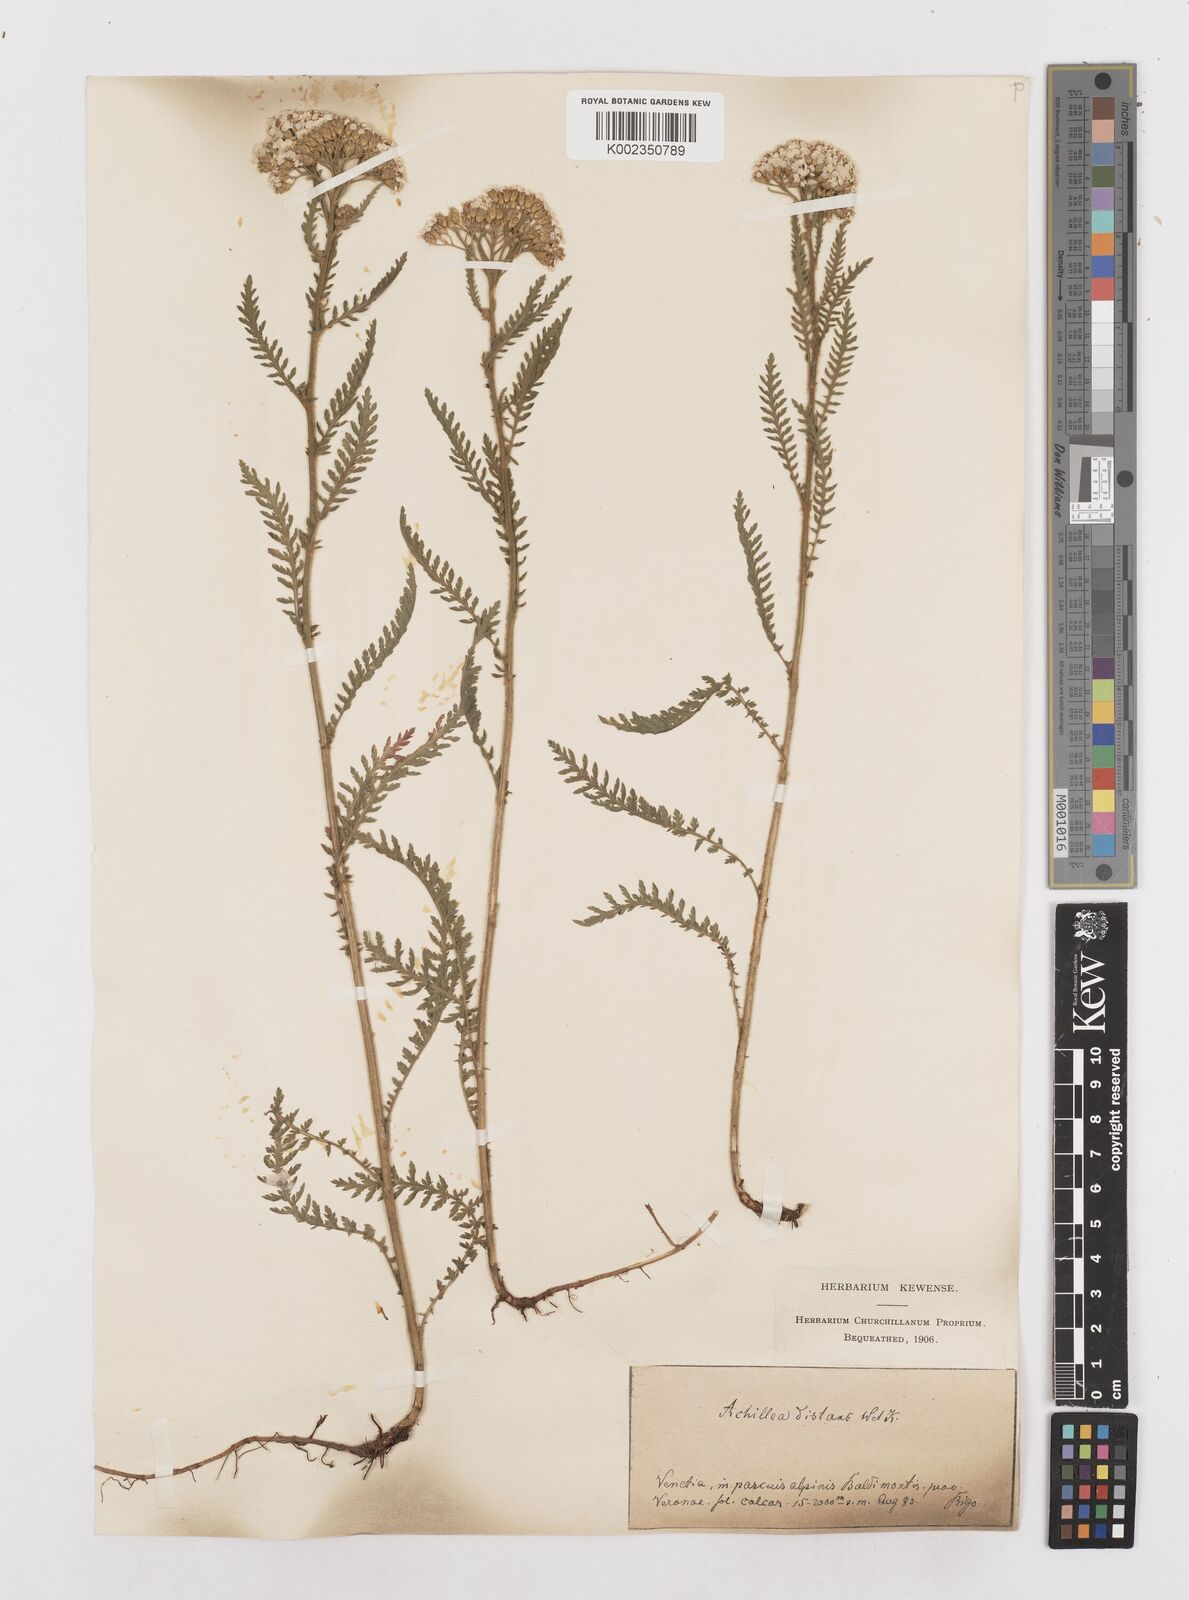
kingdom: Plantae
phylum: Tracheophyta
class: Magnoliopsida
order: Asterales
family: Asteraceae
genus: Achillea
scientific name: Achillea distans
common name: Tall yarrow
